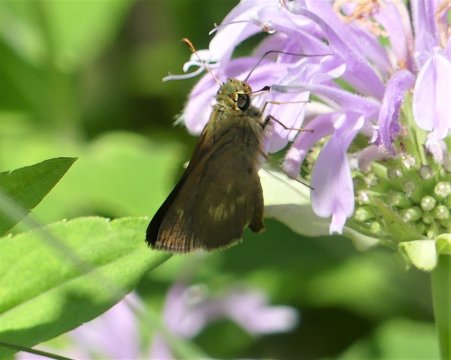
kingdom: Animalia
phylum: Arthropoda
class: Insecta
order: Lepidoptera
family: Hesperiidae
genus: Polites
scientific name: Polites egeremet
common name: Northern Broken-Dash
